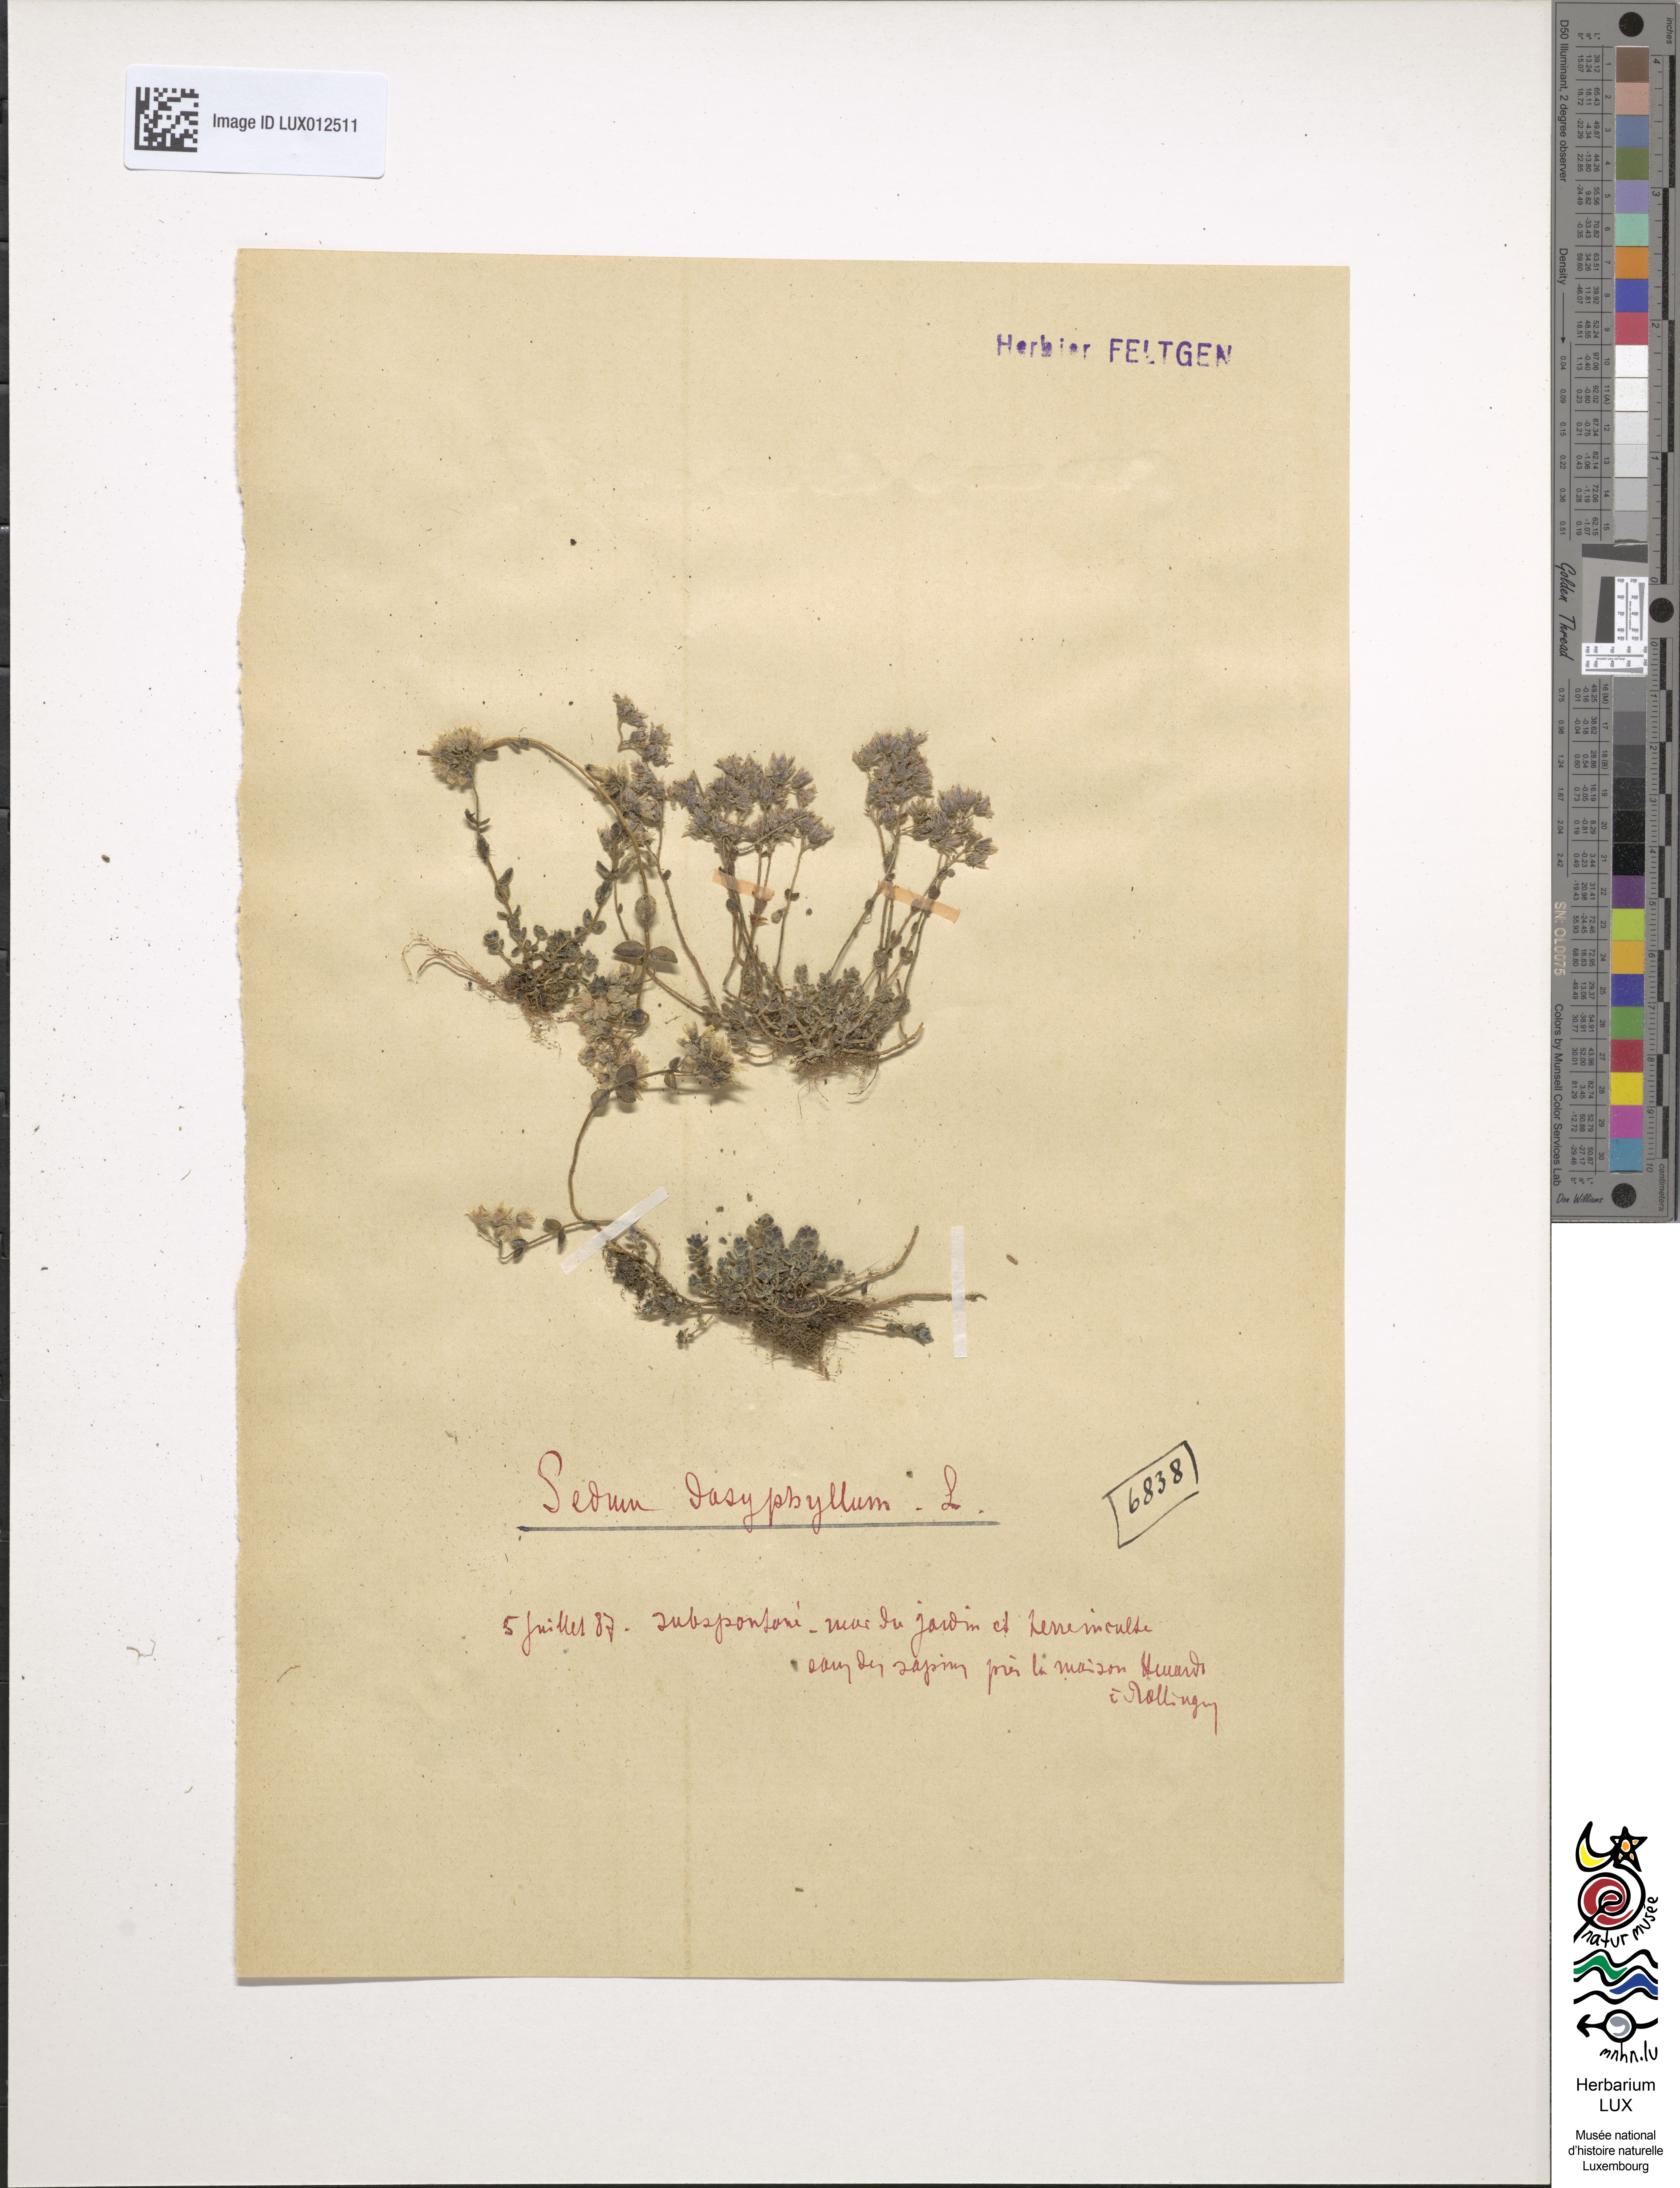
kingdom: Plantae
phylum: Tracheophyta
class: Magnoliopsida
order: Saxifragales
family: Crassulaceae
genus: Sedum
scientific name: Sedum dasyphyllum
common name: Thick-leaf stonecrop
